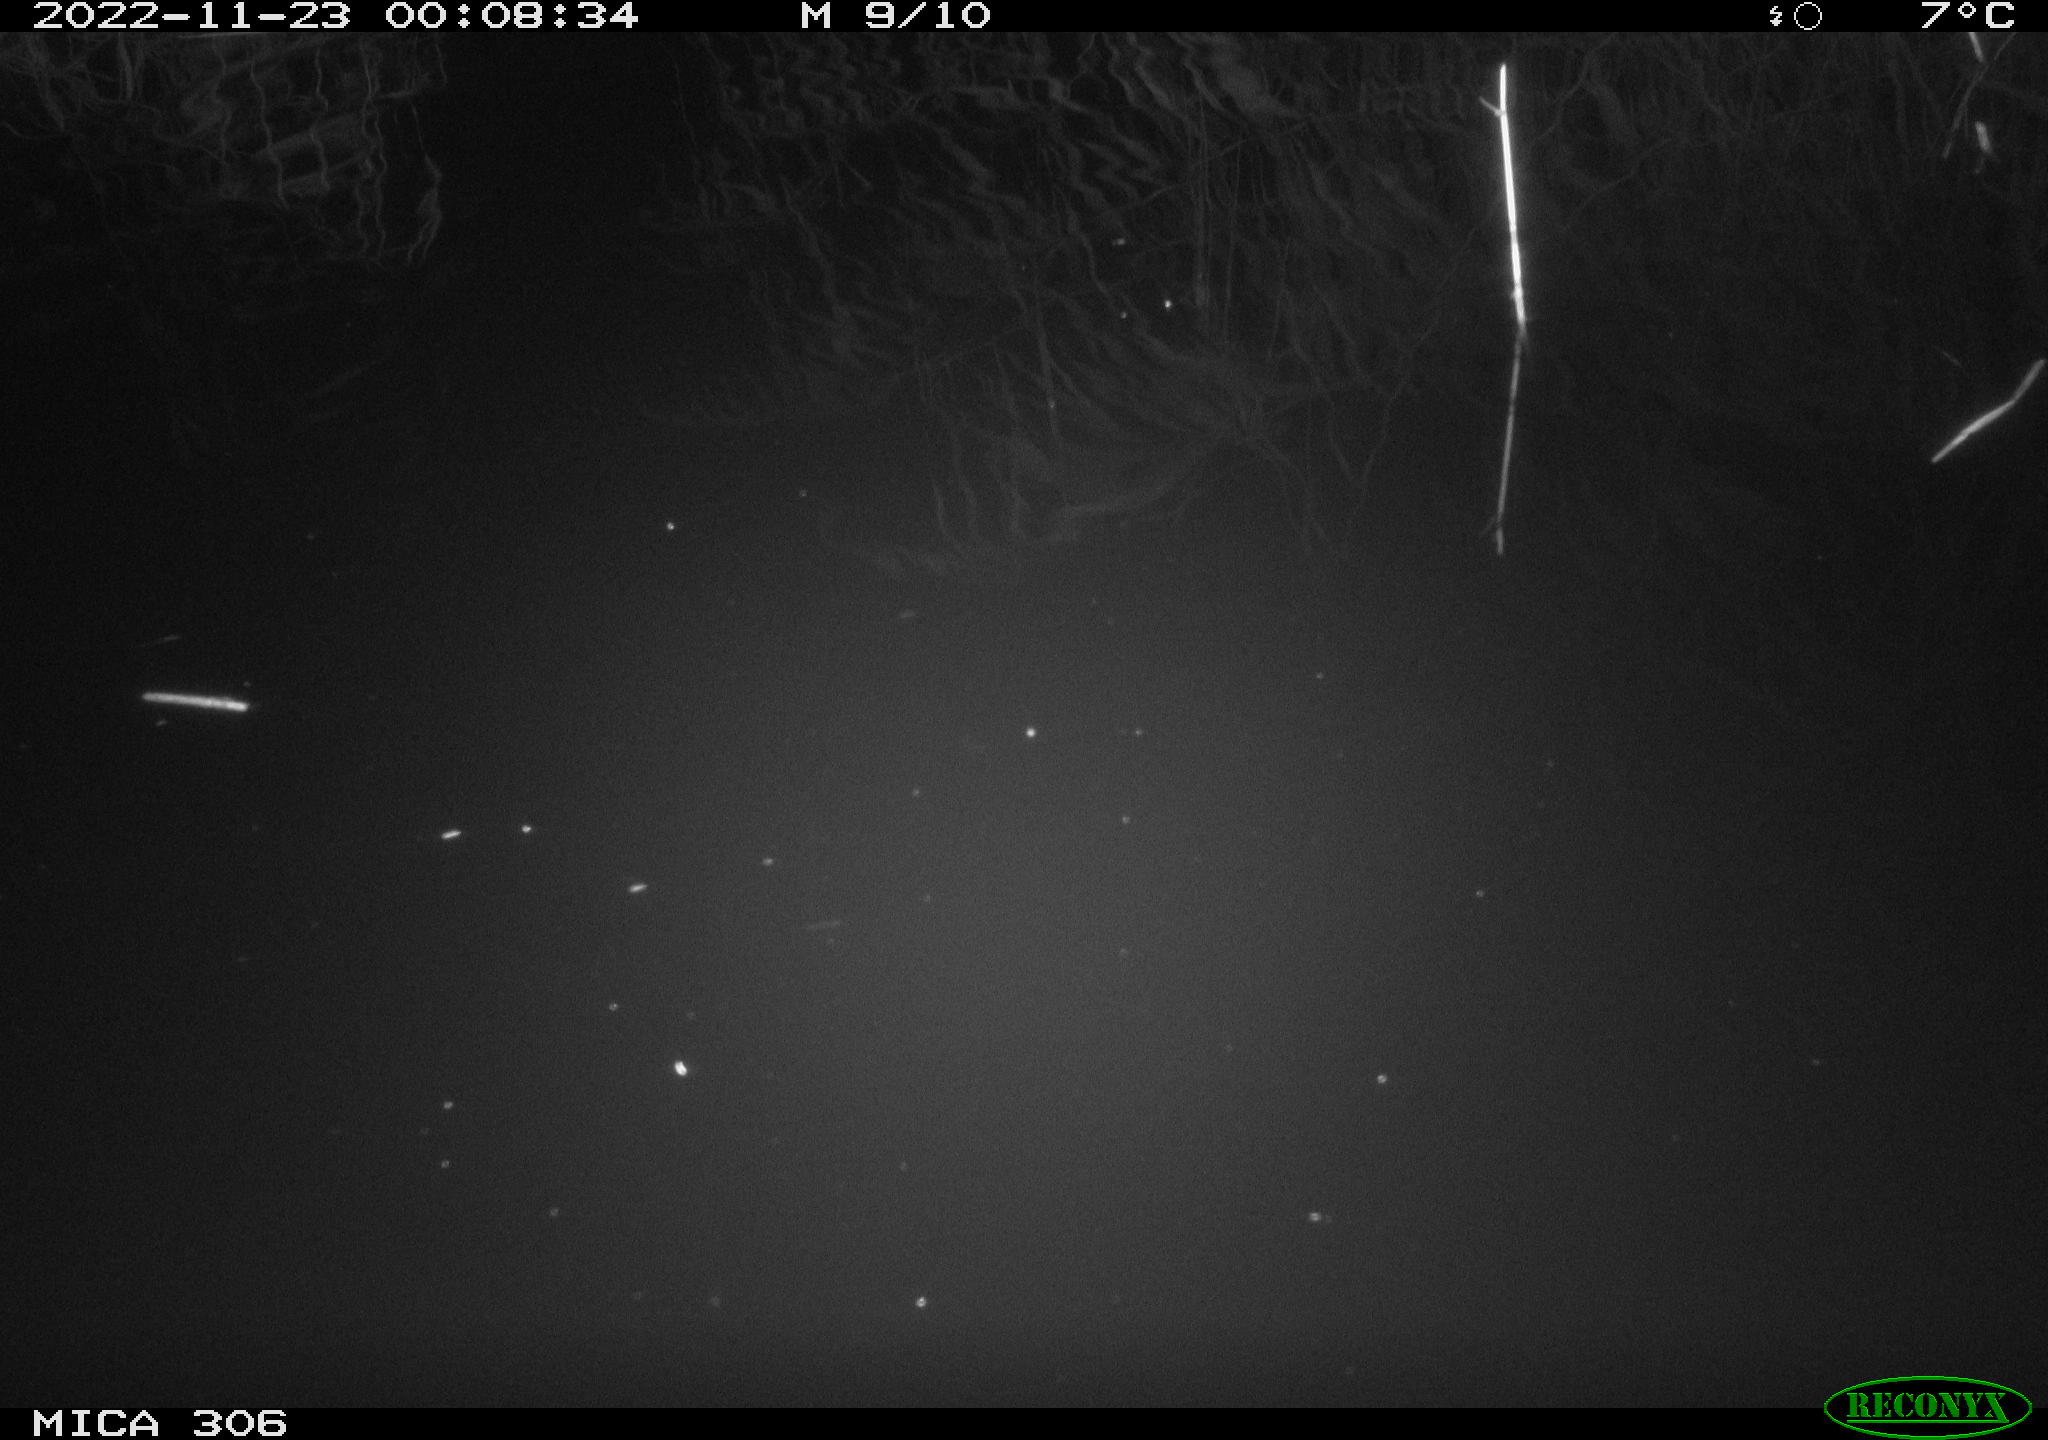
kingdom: Animalia
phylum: Chordata
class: Mammalia
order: Rodentia
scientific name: Rodentia
